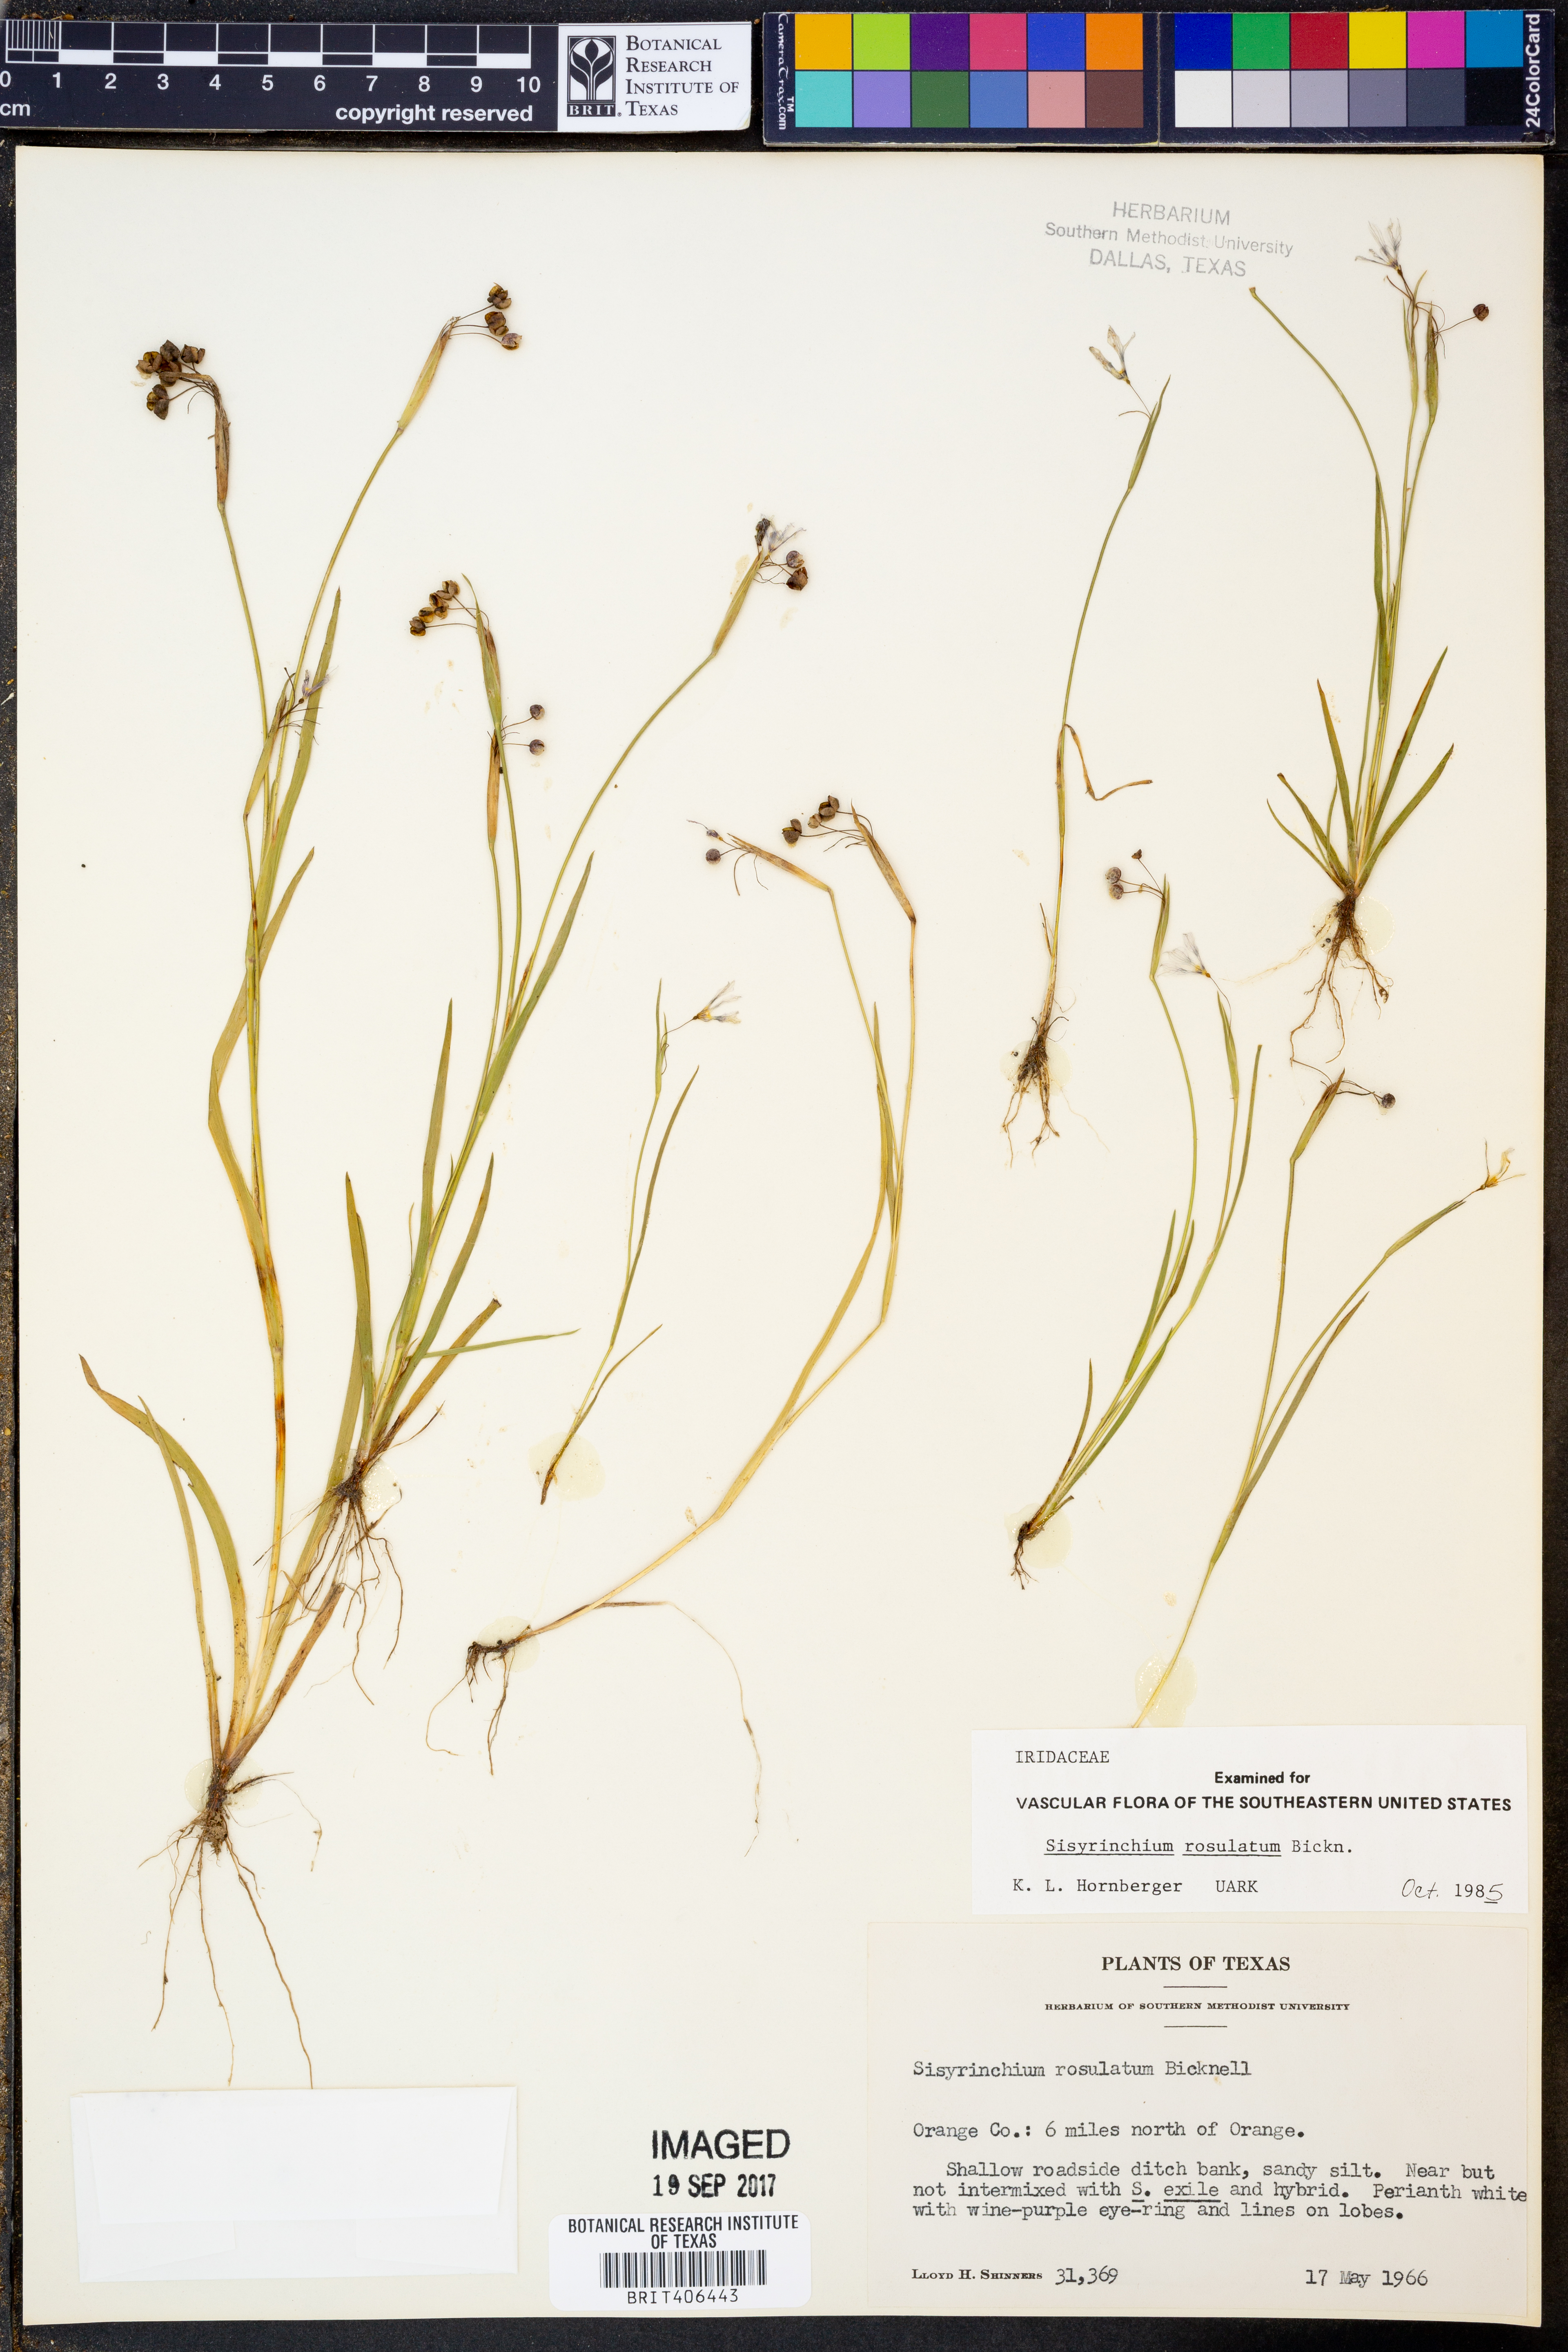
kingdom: Plantae
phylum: Tracheophyta
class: Liliopsida
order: Asparagales
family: Iridaceae
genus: Sisyrinchium
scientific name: Sisyrinchium rosulatum
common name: Annual blue-eyed grass
